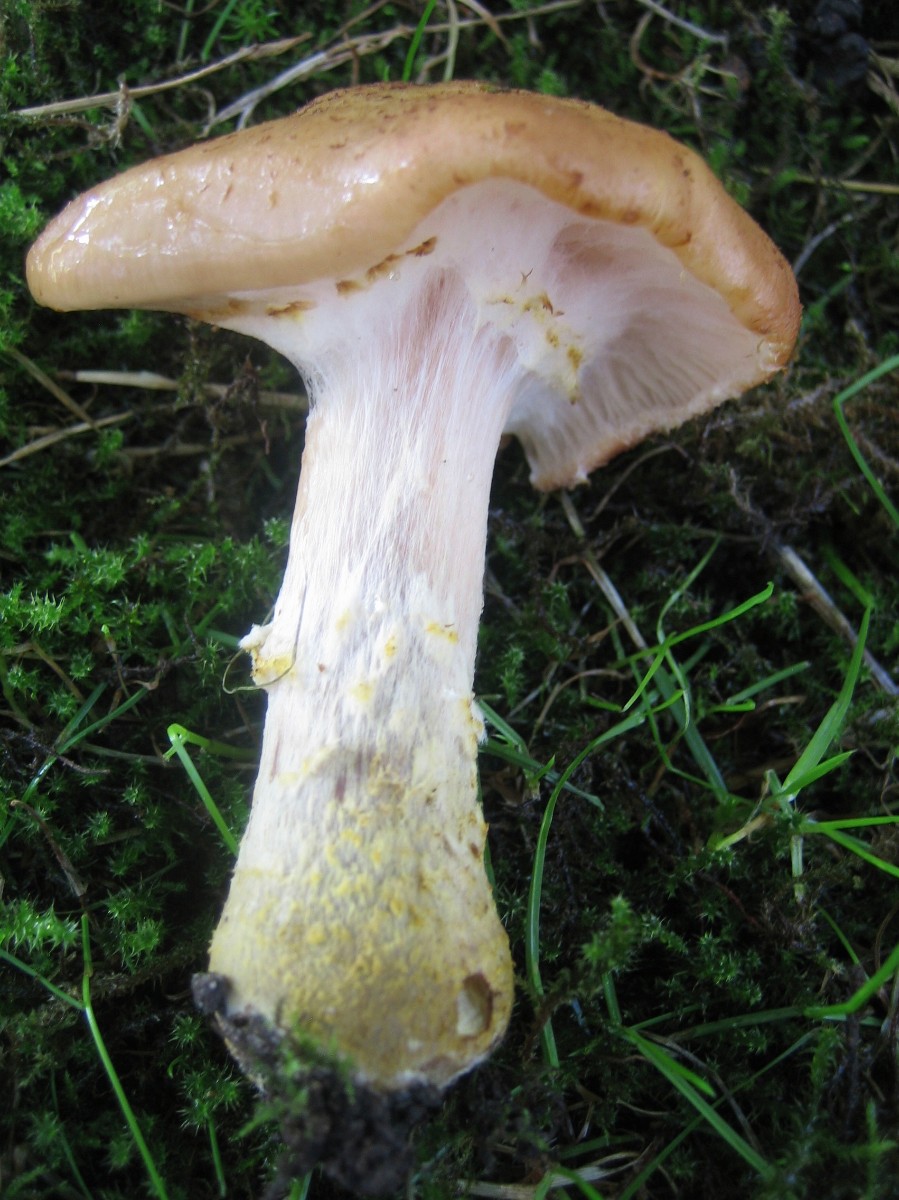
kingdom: Fungi
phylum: Basidiomycota
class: Agaricomycetes
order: Agaricales
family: Physalacriaceae
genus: Armillaria
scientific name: Armillaria lutea
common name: køllestokket honningsvamp
